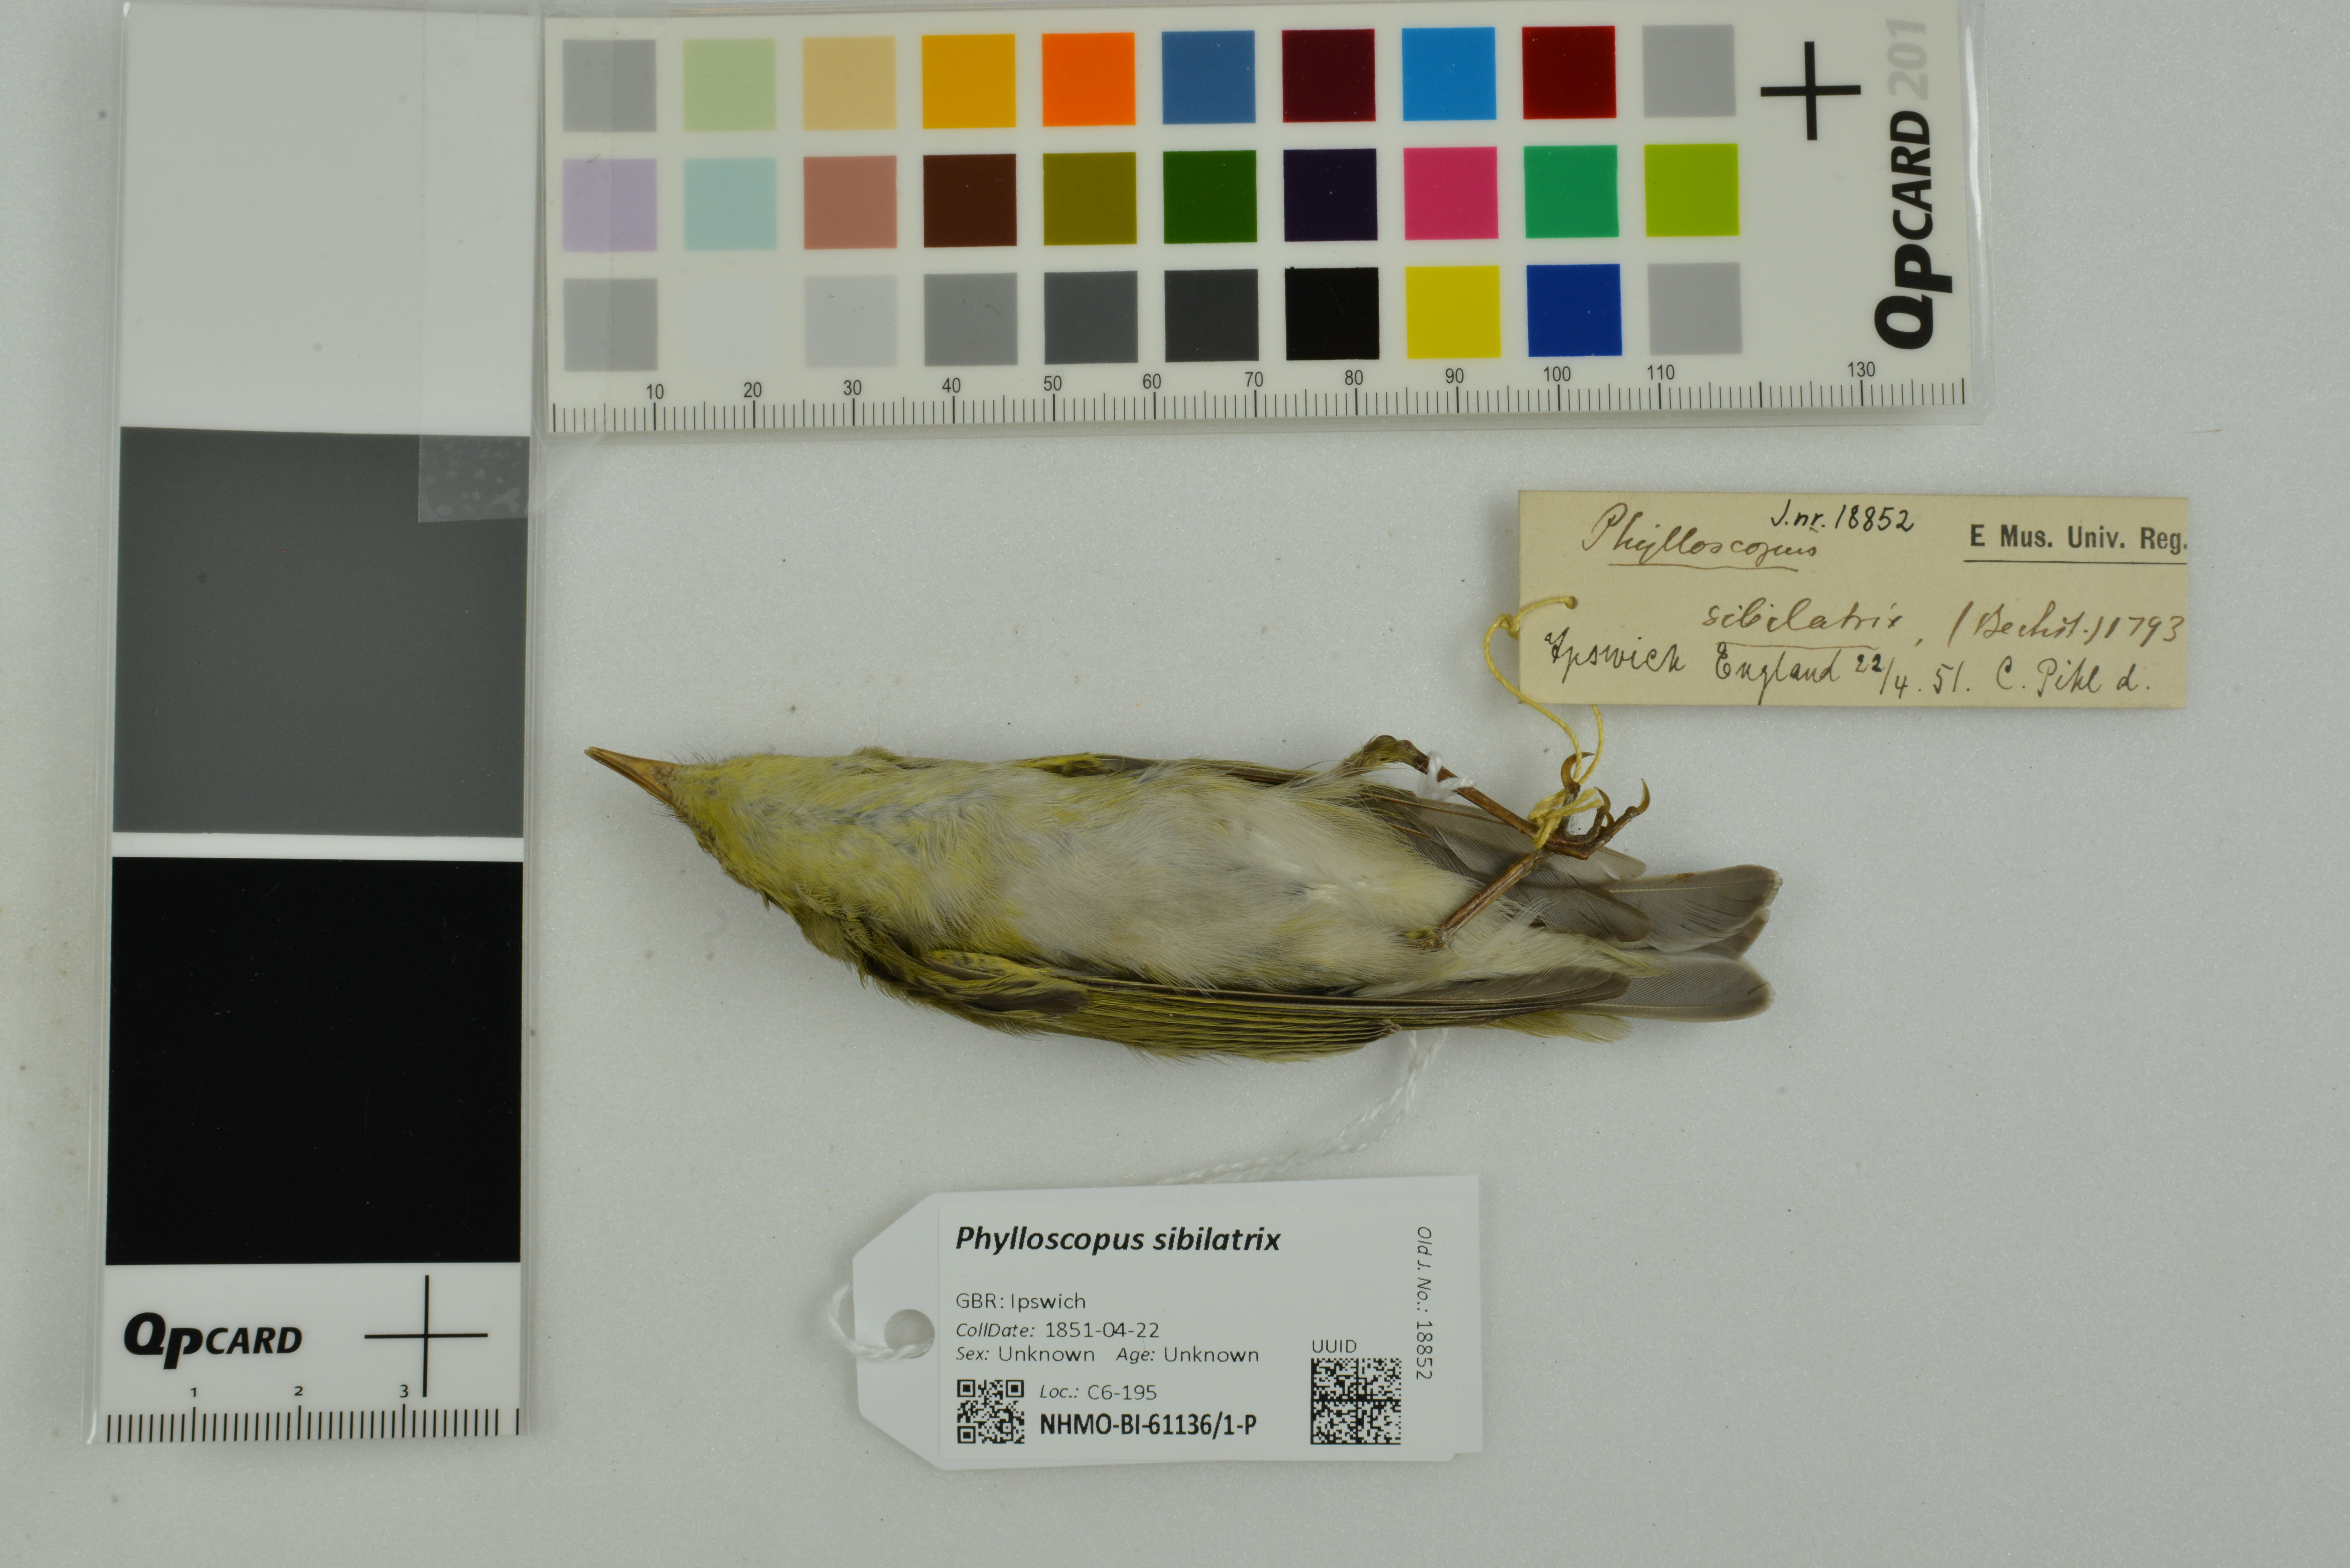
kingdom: Animalia
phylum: Chordata
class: Aves
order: Passeriformes
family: Phylloscopidae
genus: Phylloscopus
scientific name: Phylloscopus sibillatrix
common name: Wood warbler
